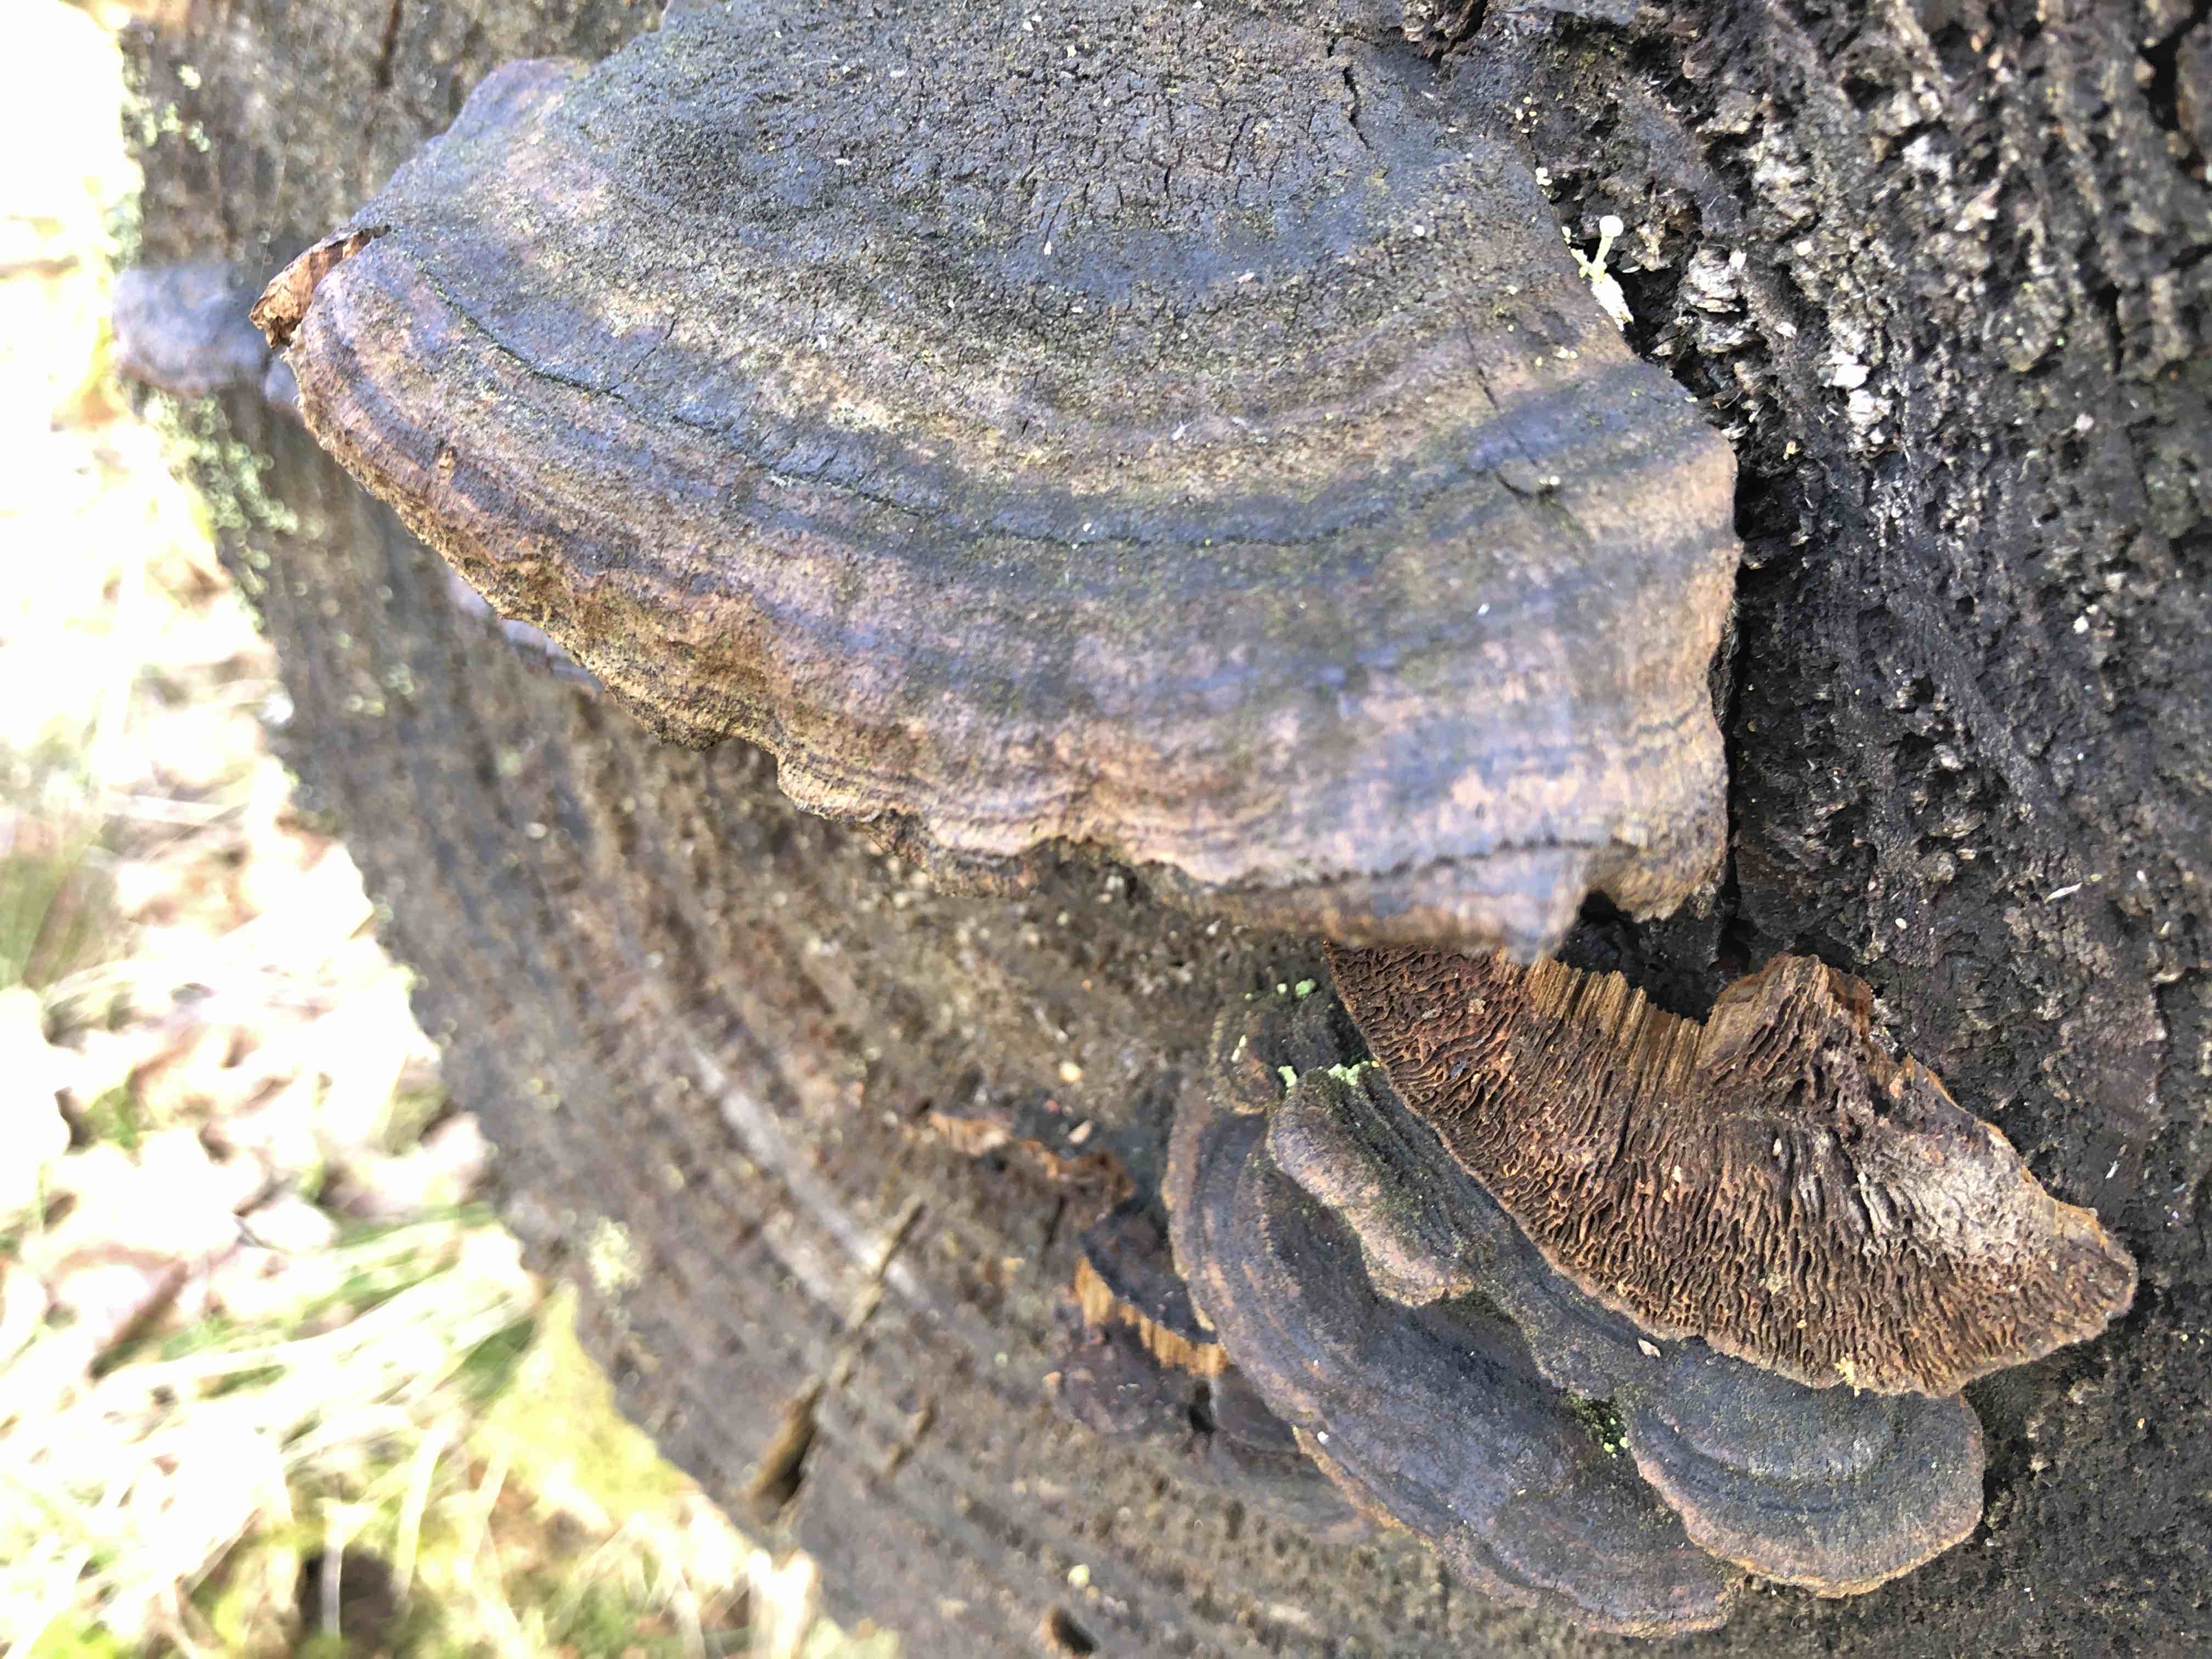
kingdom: Fungi
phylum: Basidiomycota
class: Agaricomycetes
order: Gloeophyllales
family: Gloeophyllaceae
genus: Gloeophyllum
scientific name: Gloeophyllum sepiarium
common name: fyrre-korkhat
